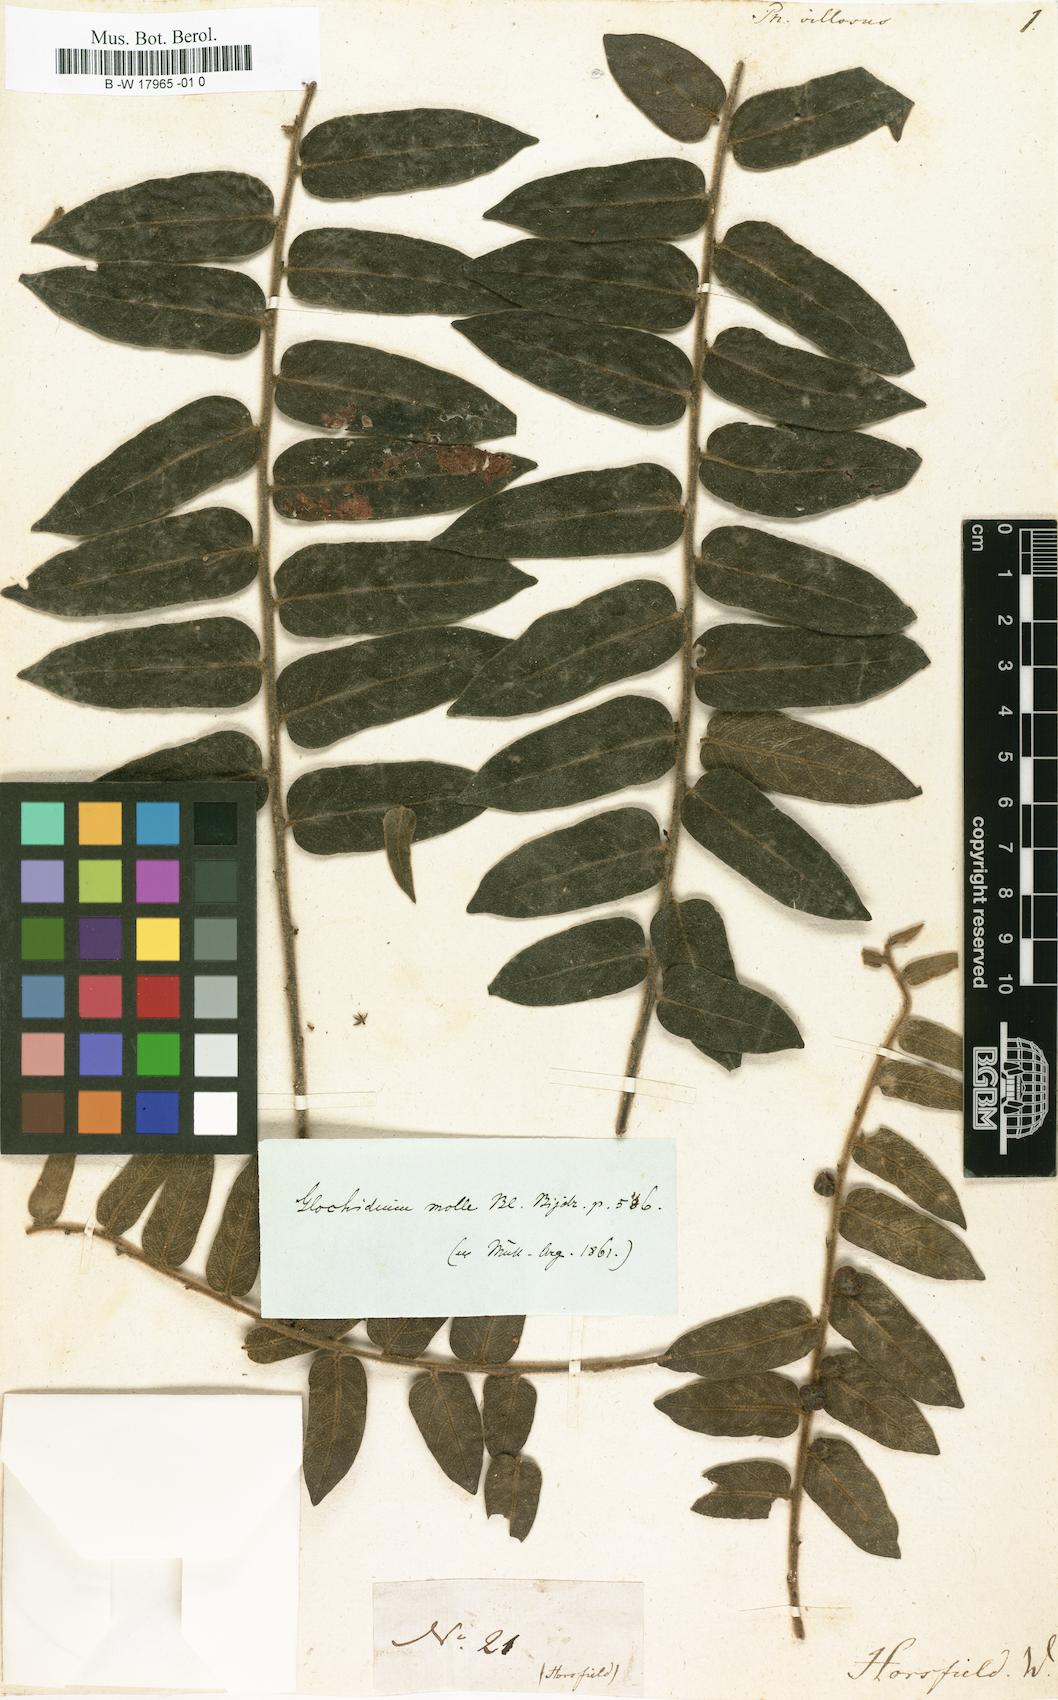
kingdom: Plantae
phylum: Tracheophyta
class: Magnoliopsida
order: Malpighiales
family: Phyllanthaceae
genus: Phyllanthus
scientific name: Phyllanthus villosus
